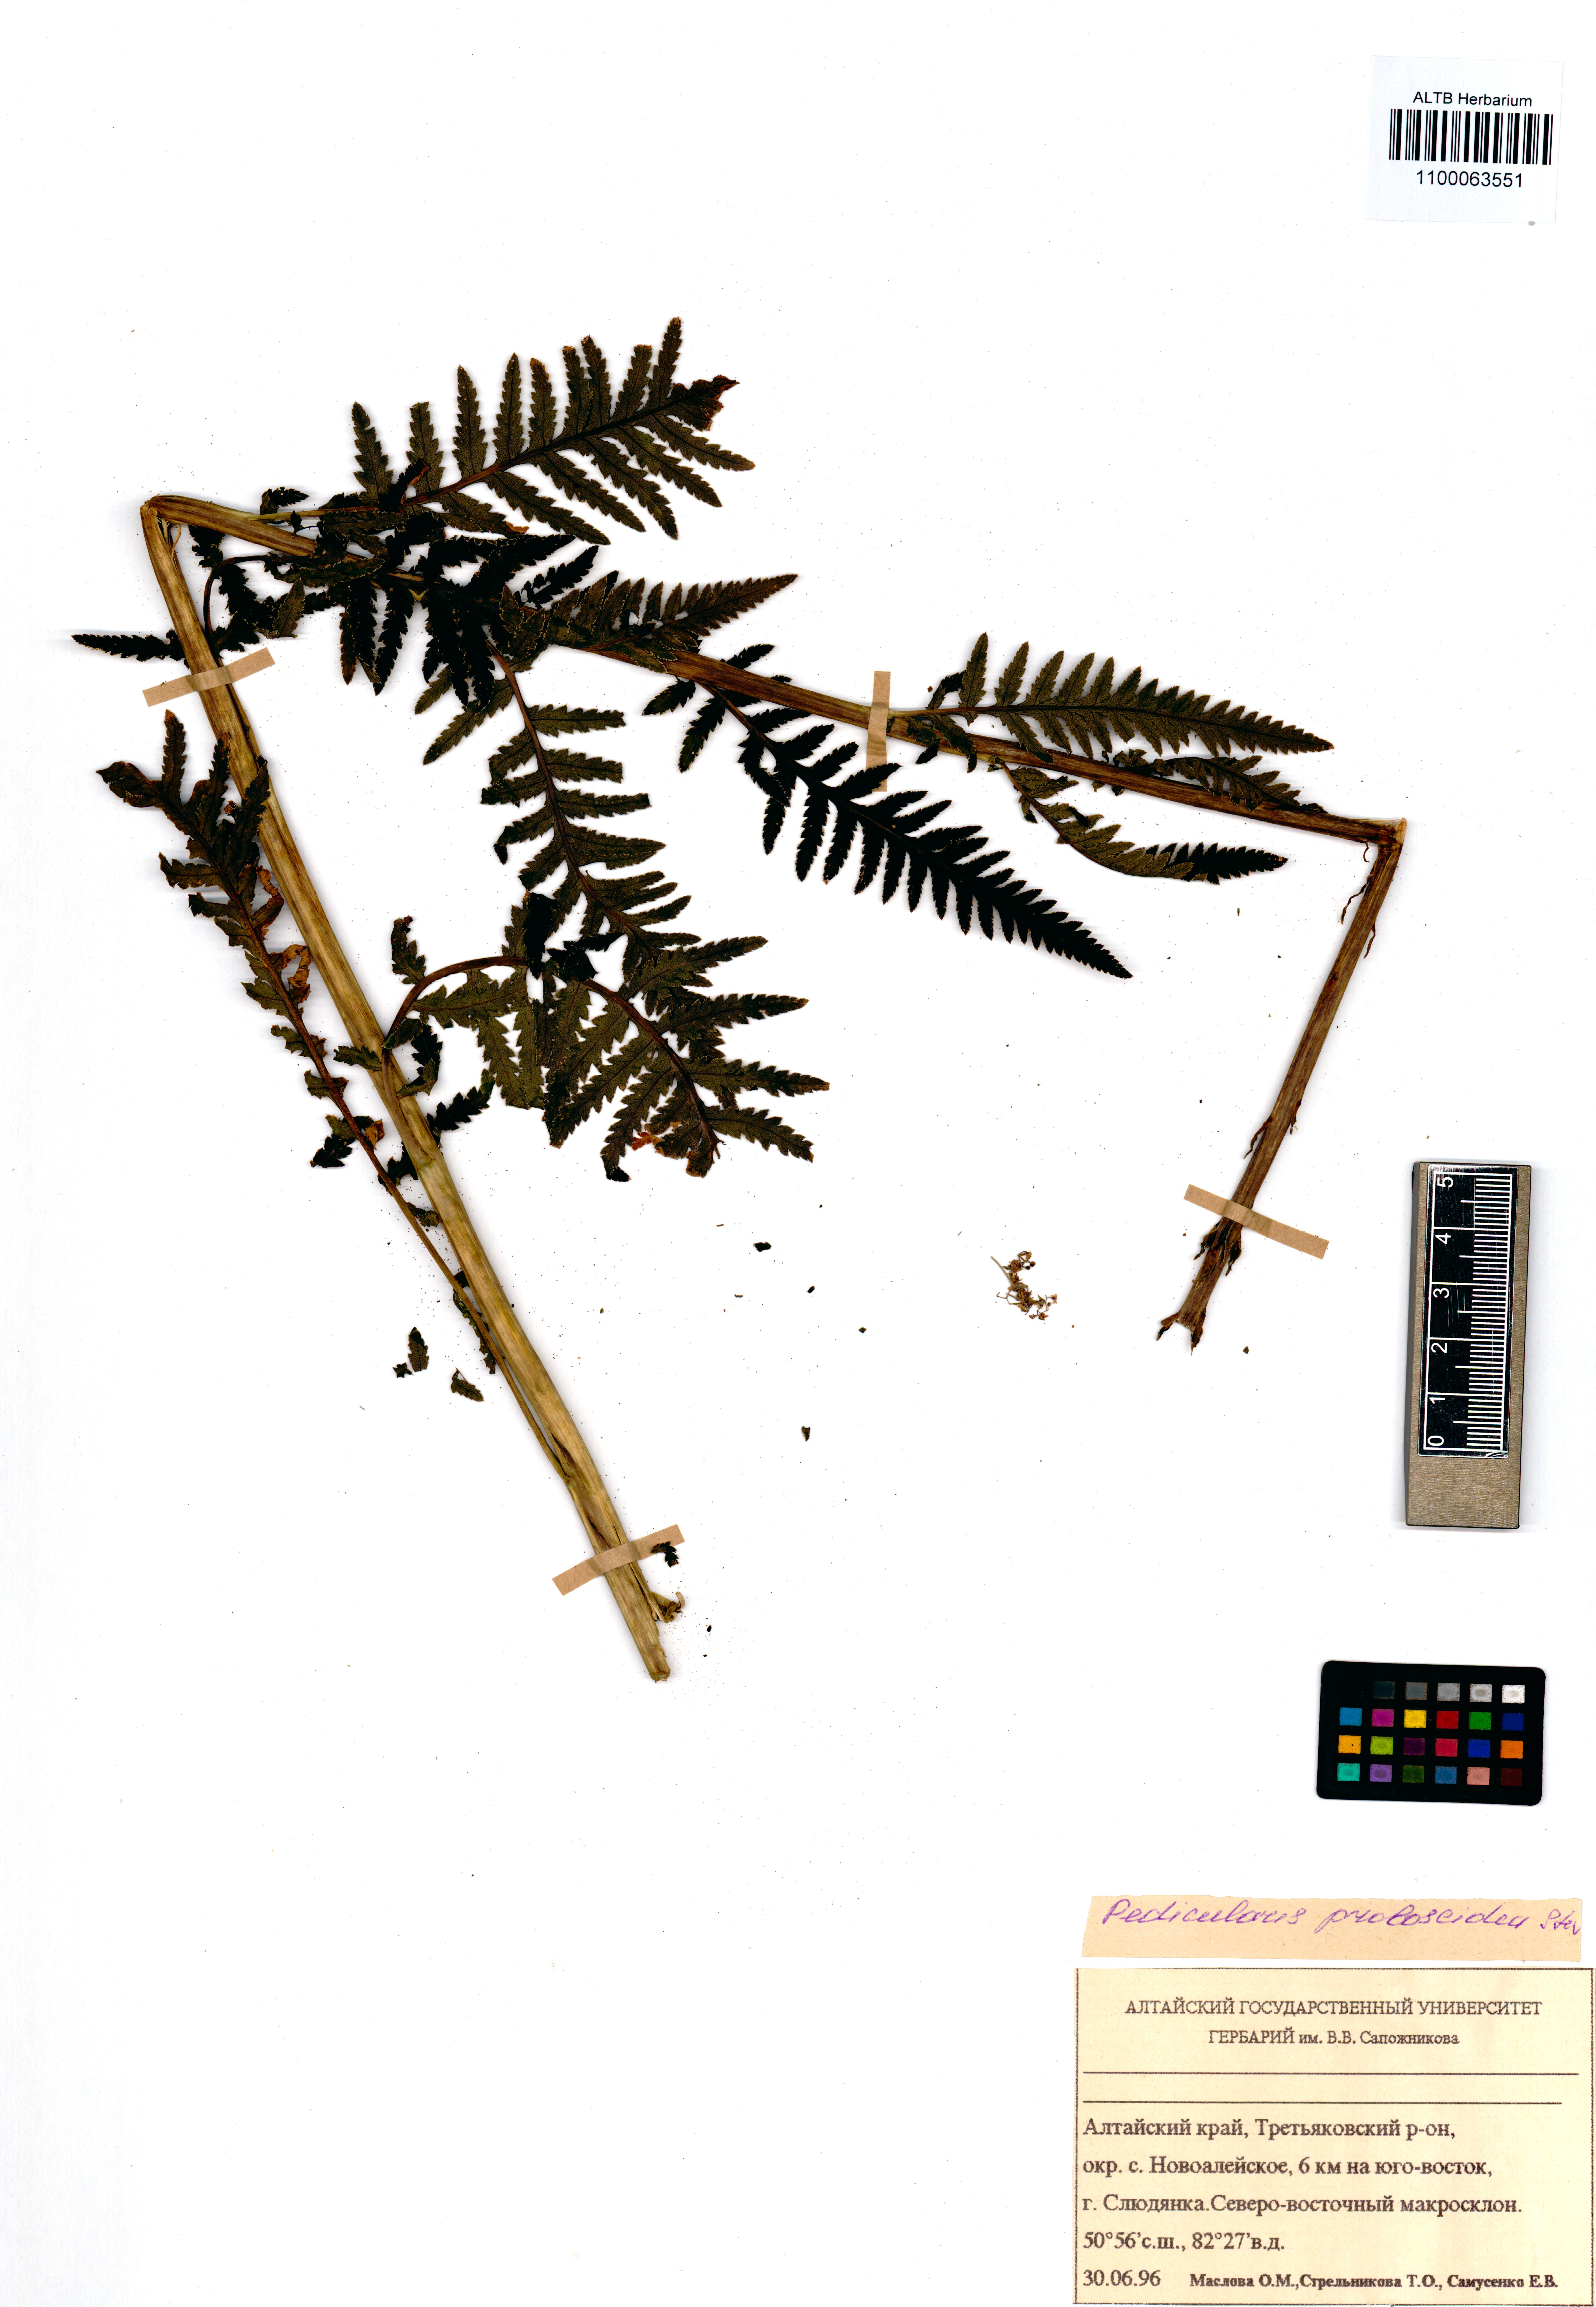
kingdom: Plantae
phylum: Tracheophyta
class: Magnoliopsida
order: Lamiales
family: Orobanchaceae
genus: Pedicularis
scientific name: Pedicularis cenisia
